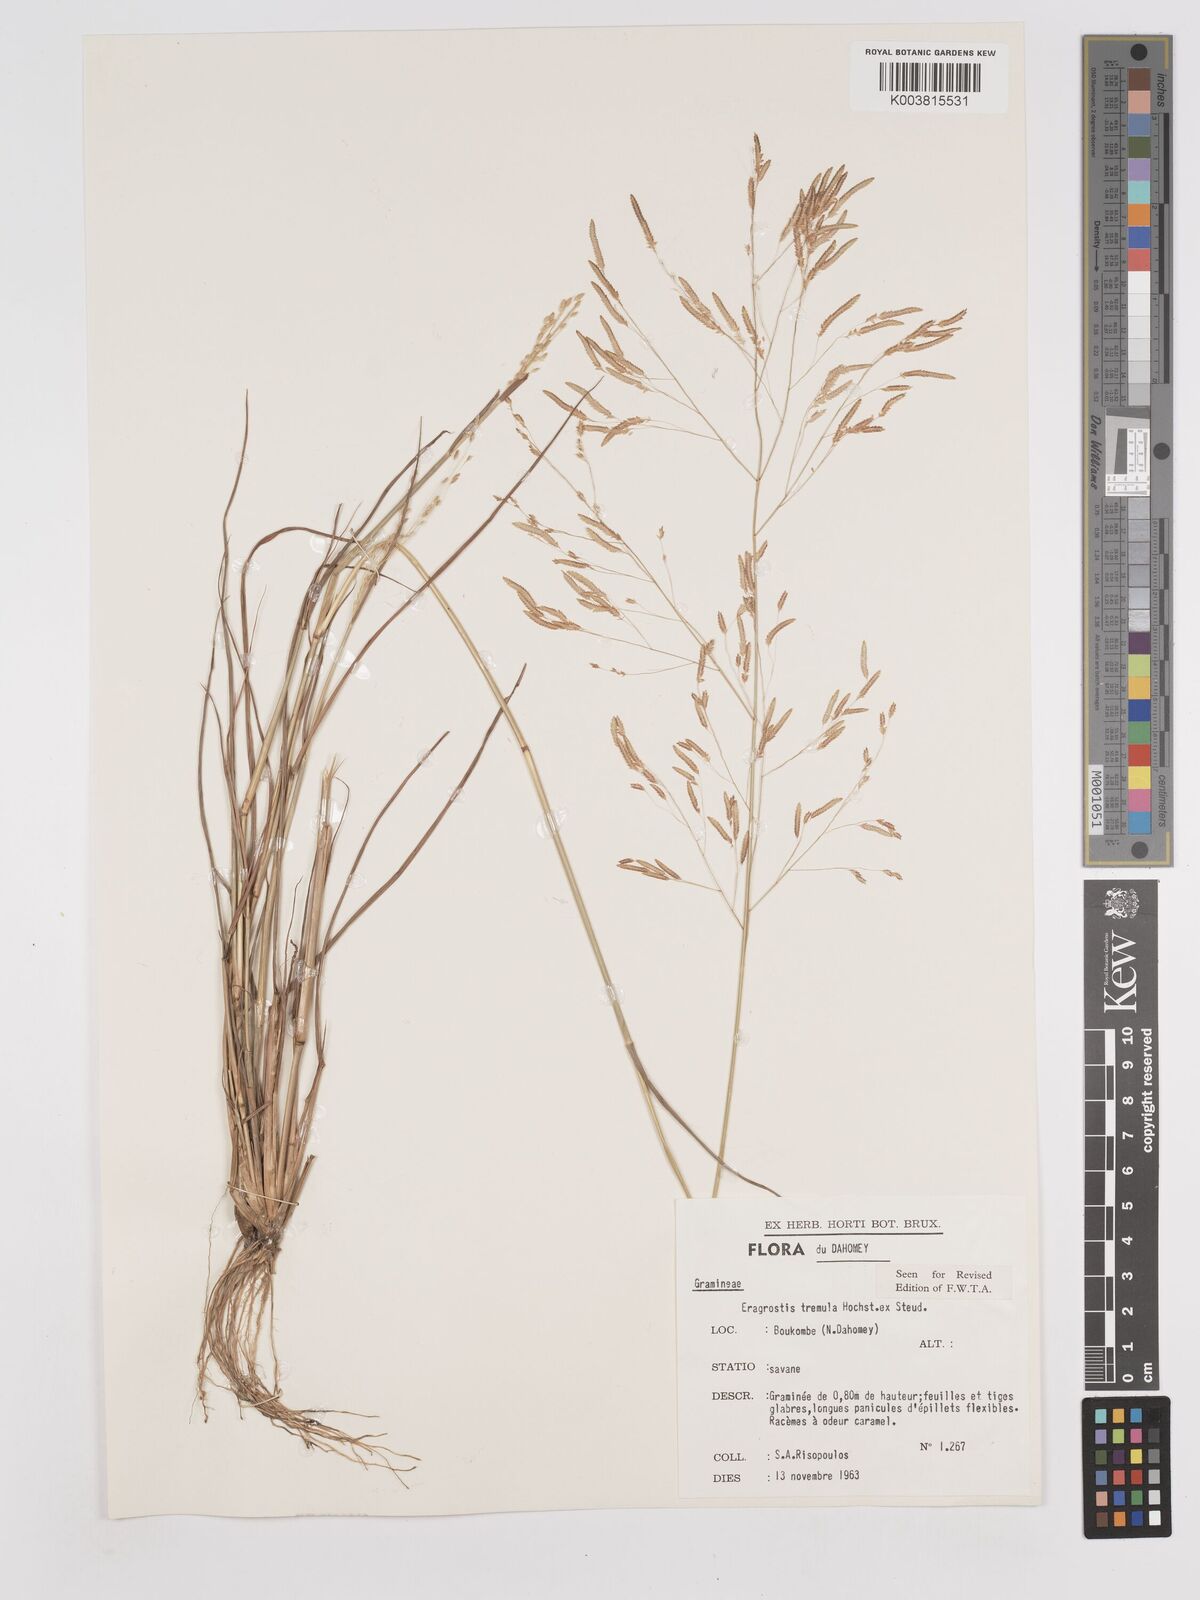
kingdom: Plantae
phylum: Tracheophyta
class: Liliopsida
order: Poales
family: Poaceae
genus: Eragrostis
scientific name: Eragrostis tremula
